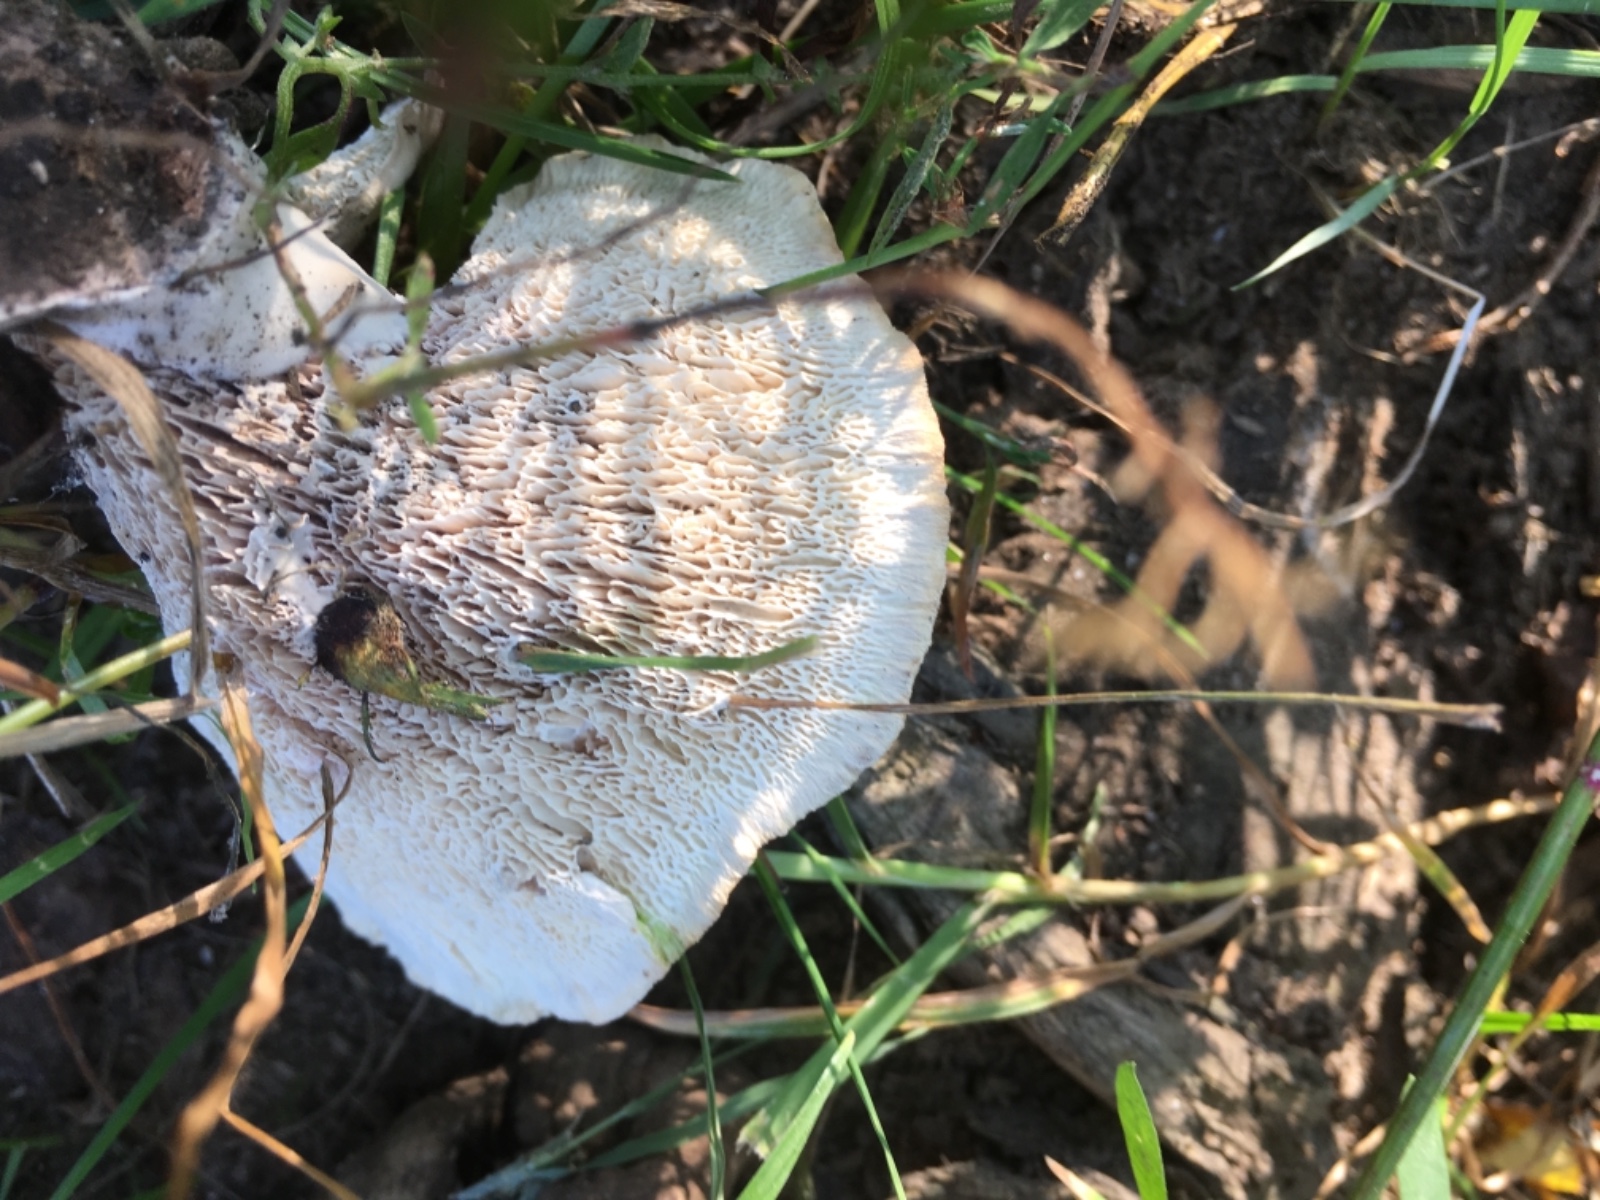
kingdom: Fungi
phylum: Basidiomycota
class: Agaricomycetes
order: Polyporales
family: Podoscyphaceae
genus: Abortiporus
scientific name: Abortiporus biennis
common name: rødmende pjalteporesvamp
